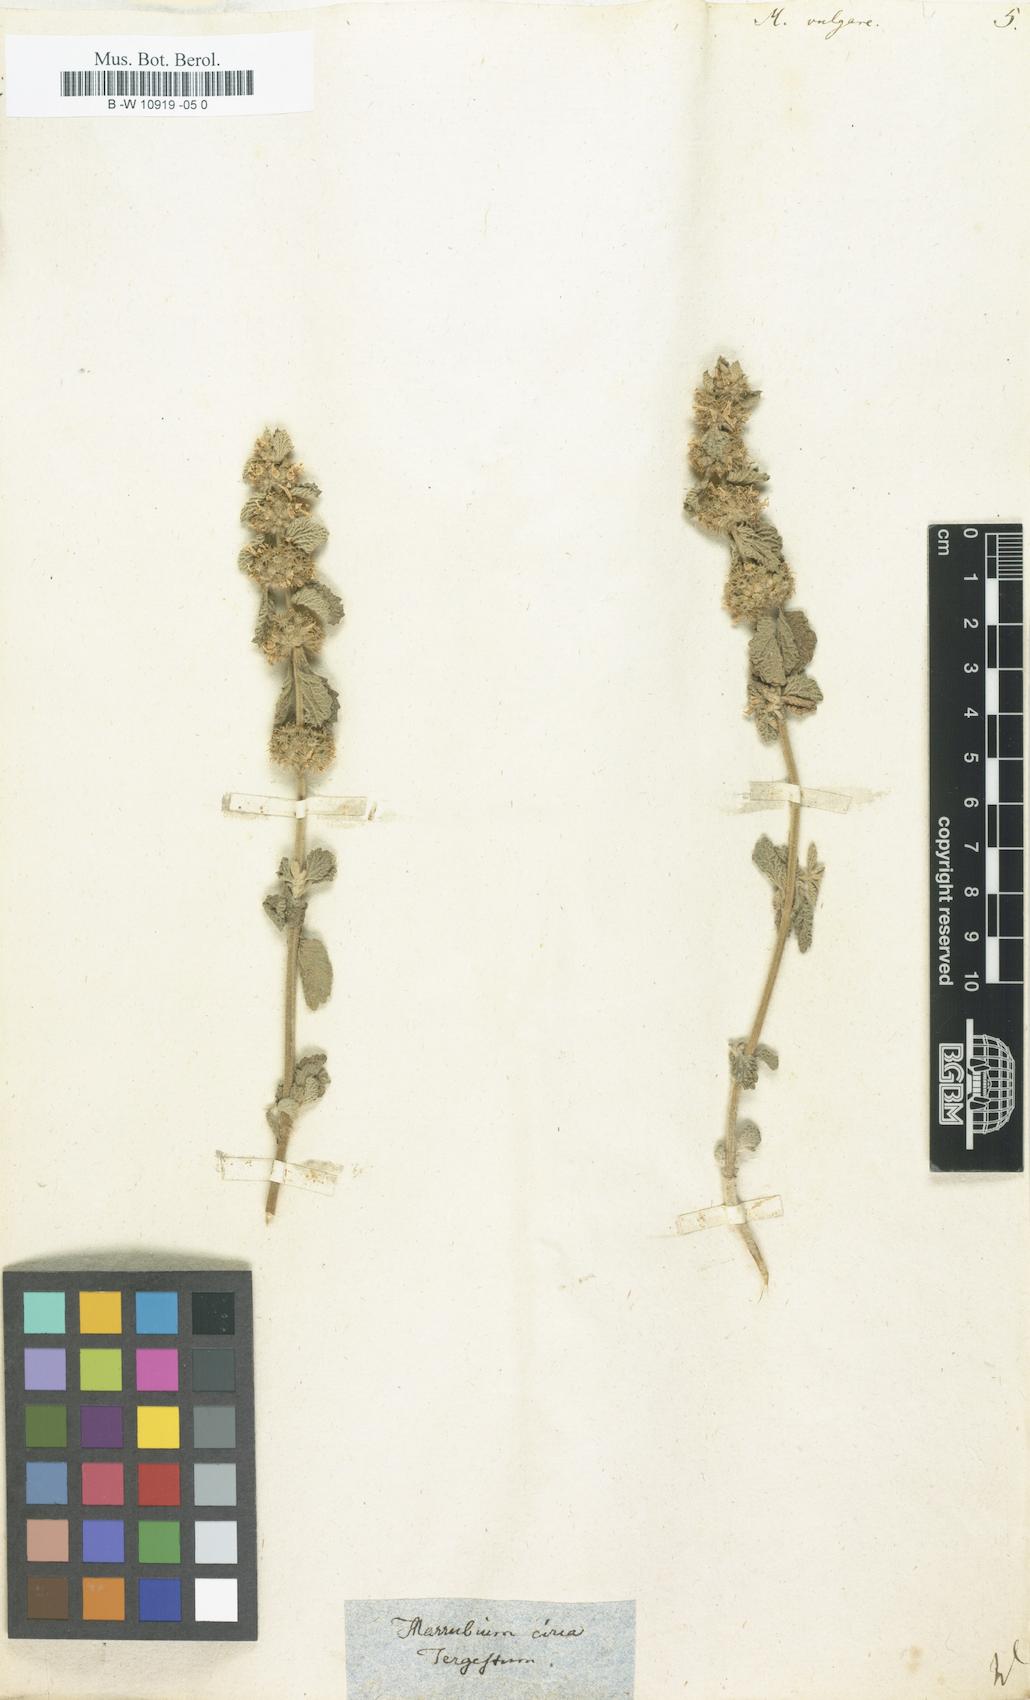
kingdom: Plantae
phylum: Tracheophyta
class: Magnoliopsida
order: Lamiales
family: Lamiaceae
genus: Marrubium
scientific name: Marrubium vulgare
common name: Horehound
